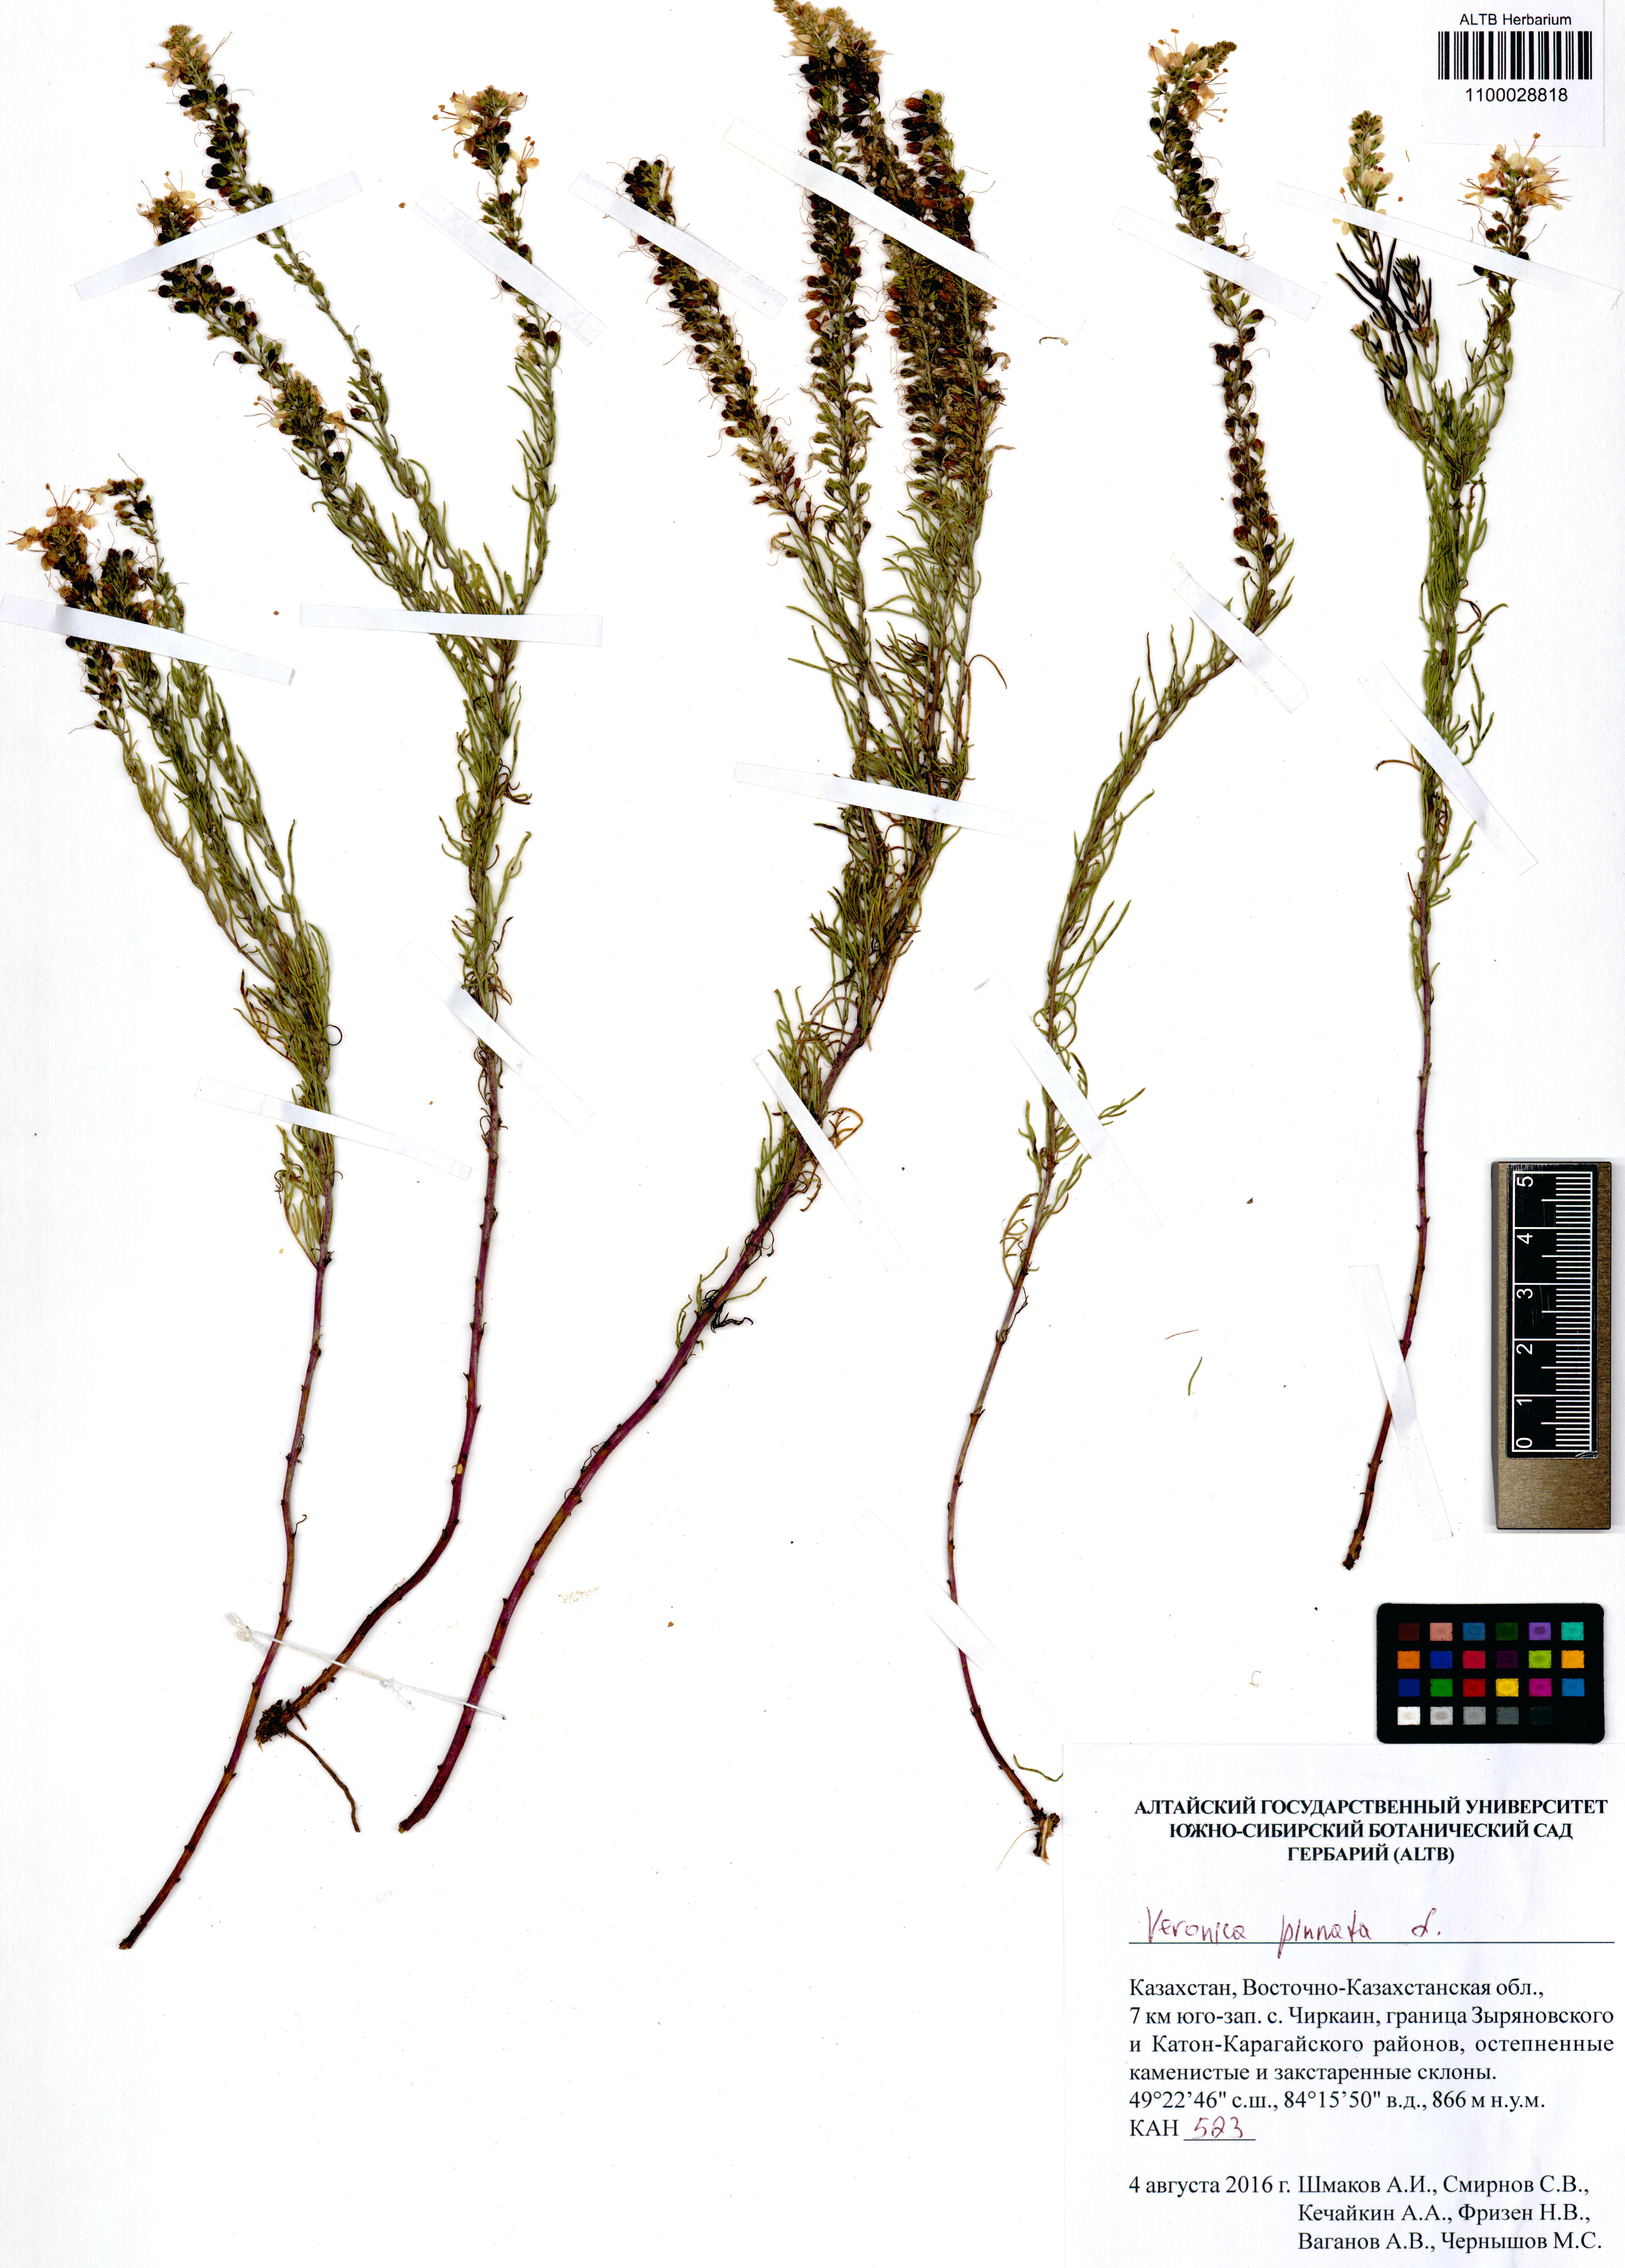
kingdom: Plantae
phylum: Tracheophyta
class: Magnoliopsida
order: Lamiales
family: Plantaginaceae
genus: Veronica
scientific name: Veronica pinnata
